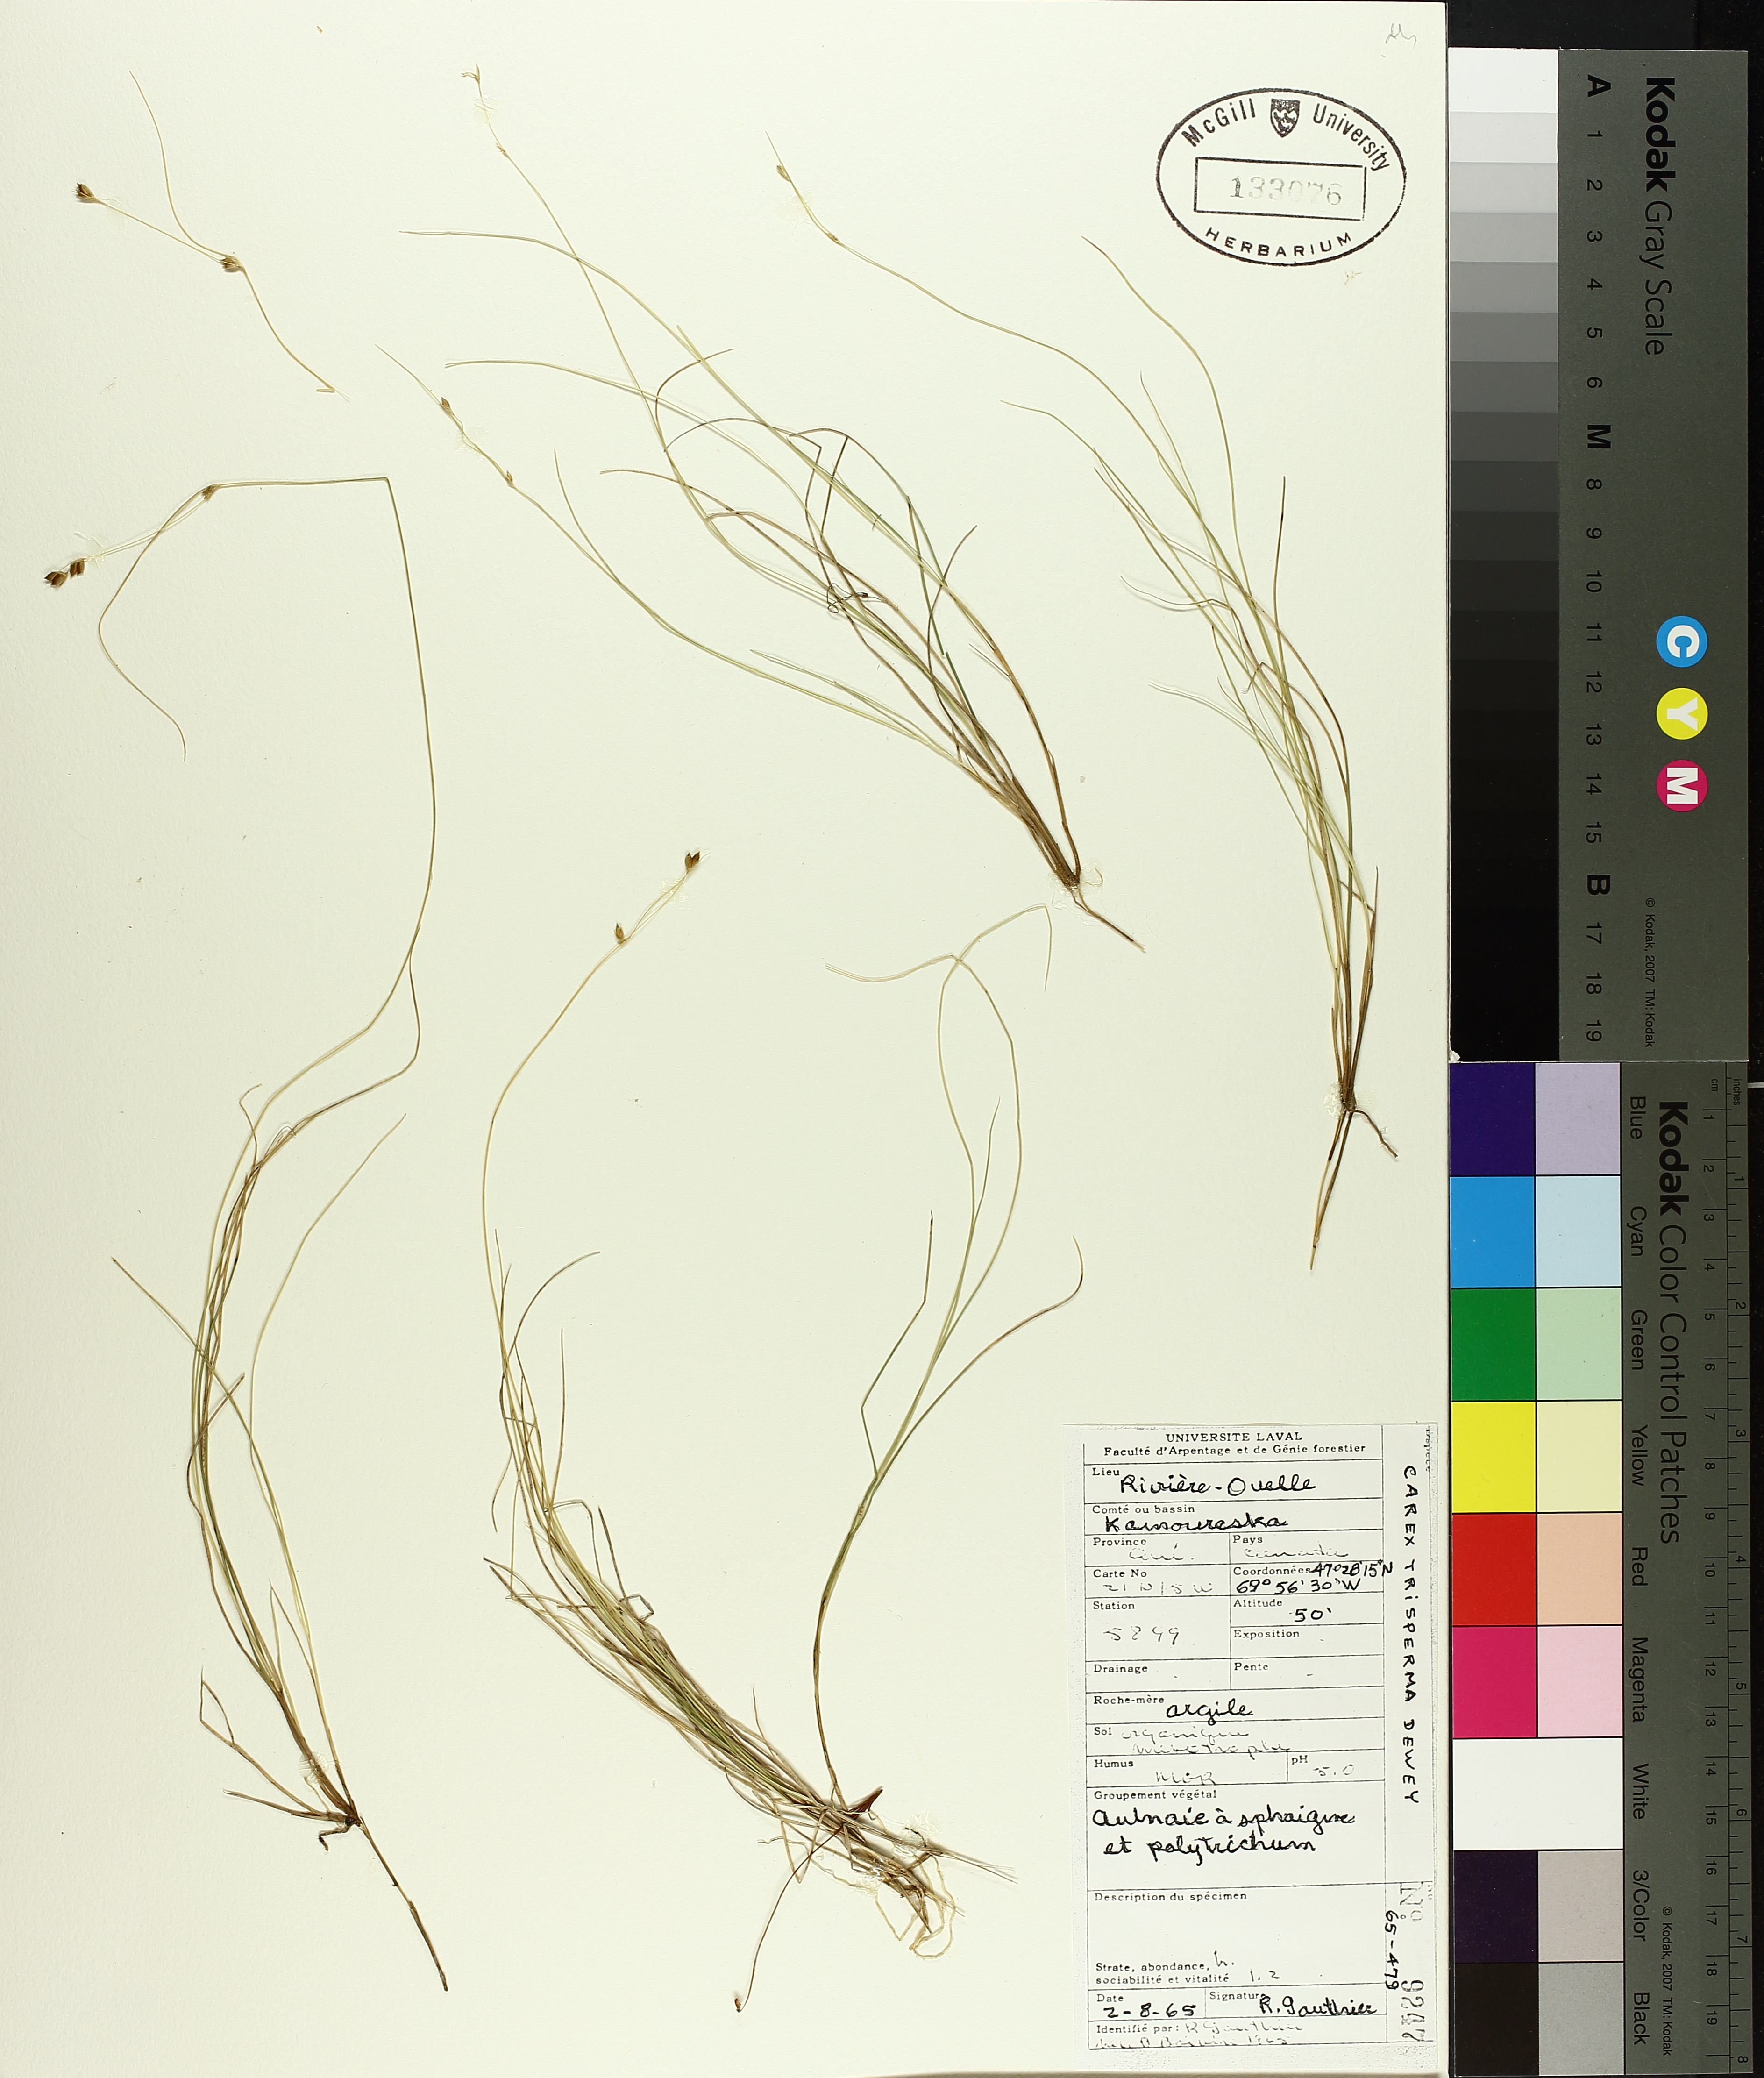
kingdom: Plantae
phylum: Tracheophyta
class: Liliopsida
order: Poales
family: Cyperaceae
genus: Carex
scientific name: Carex trisperma
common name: Three-seeded sedge
